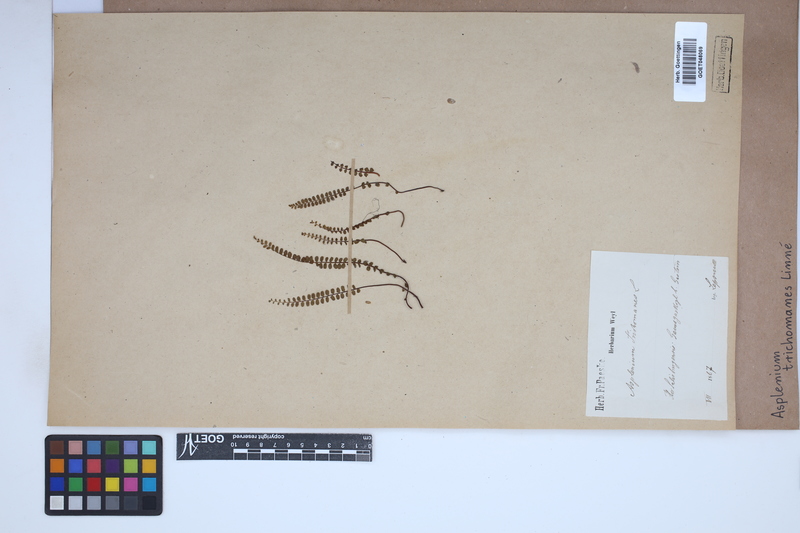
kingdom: Plantae
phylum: Tracheophyta
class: Polypodiopsida
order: Polypodiales
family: Aspleniaceae
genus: Asplenium
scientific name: Asplenium trichomanes
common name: Maidenhair spleenwort
